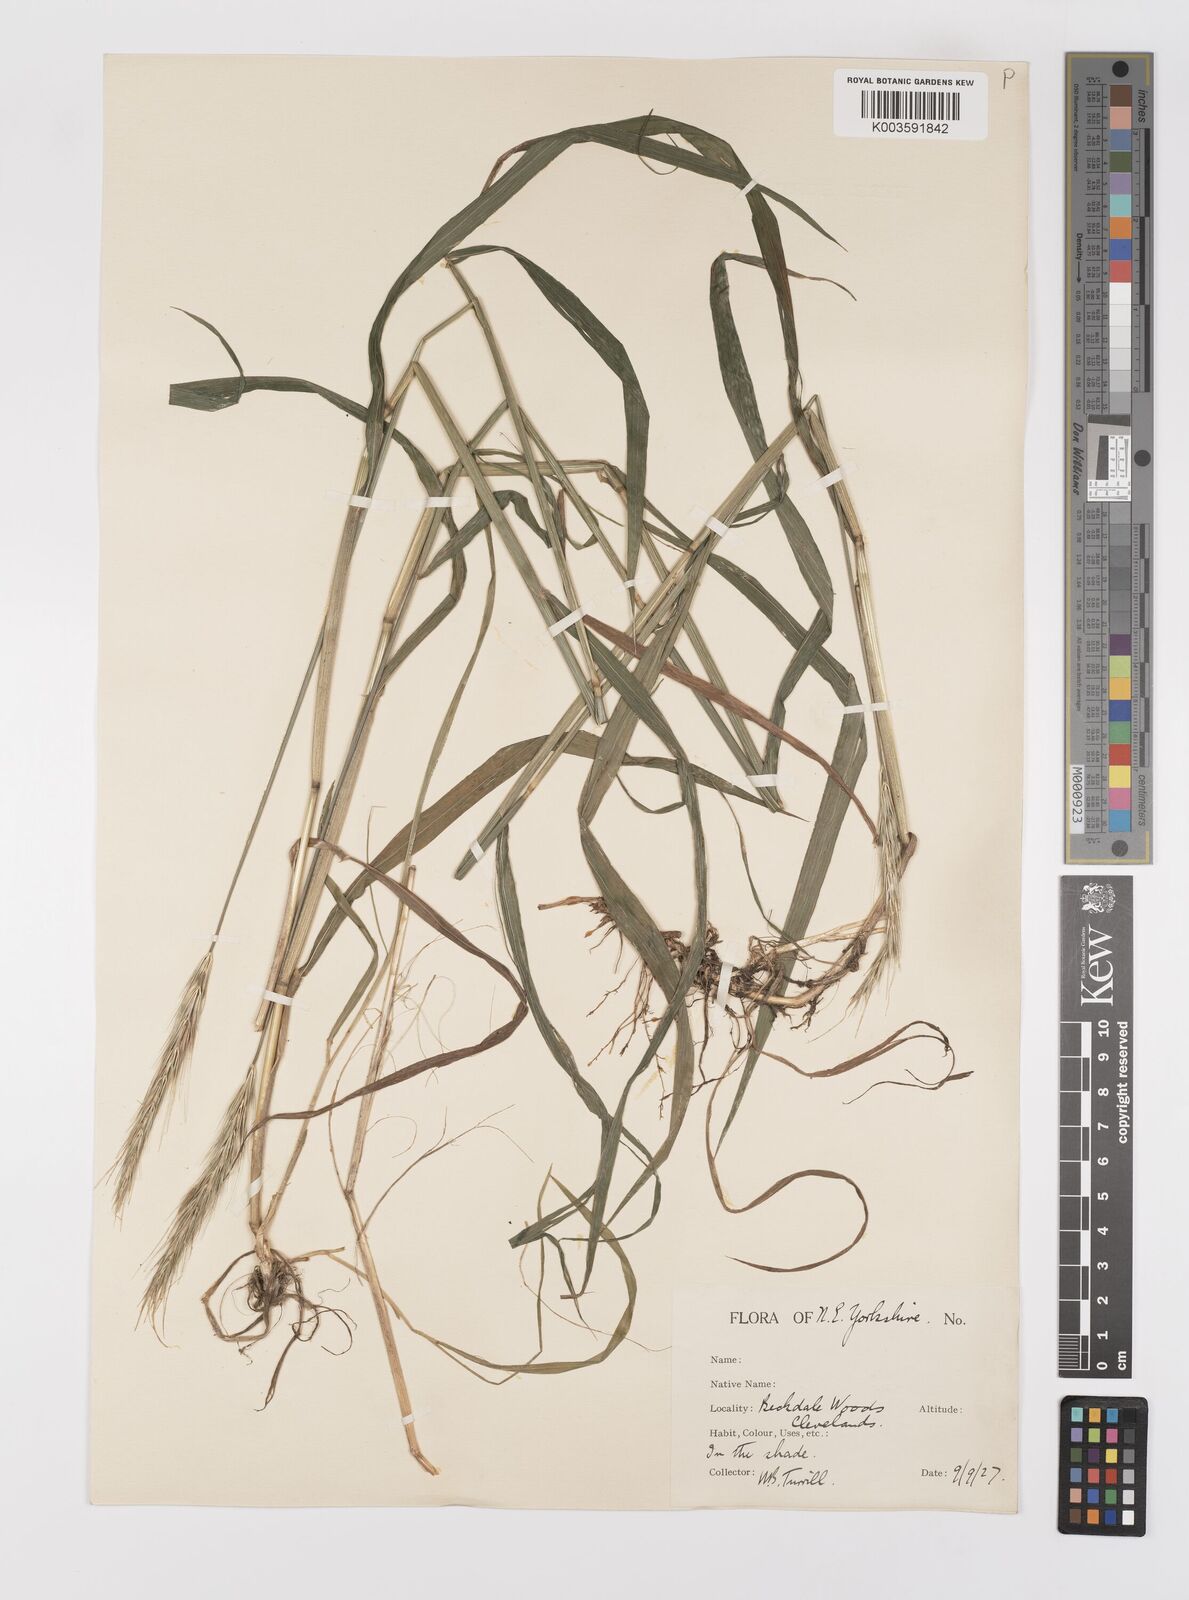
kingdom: Plantae
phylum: Tracheophyta
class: Liliopsida
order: Poales
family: Poaceae
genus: Hordelymus
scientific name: Hordelymus europaeus
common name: Wood-barley
